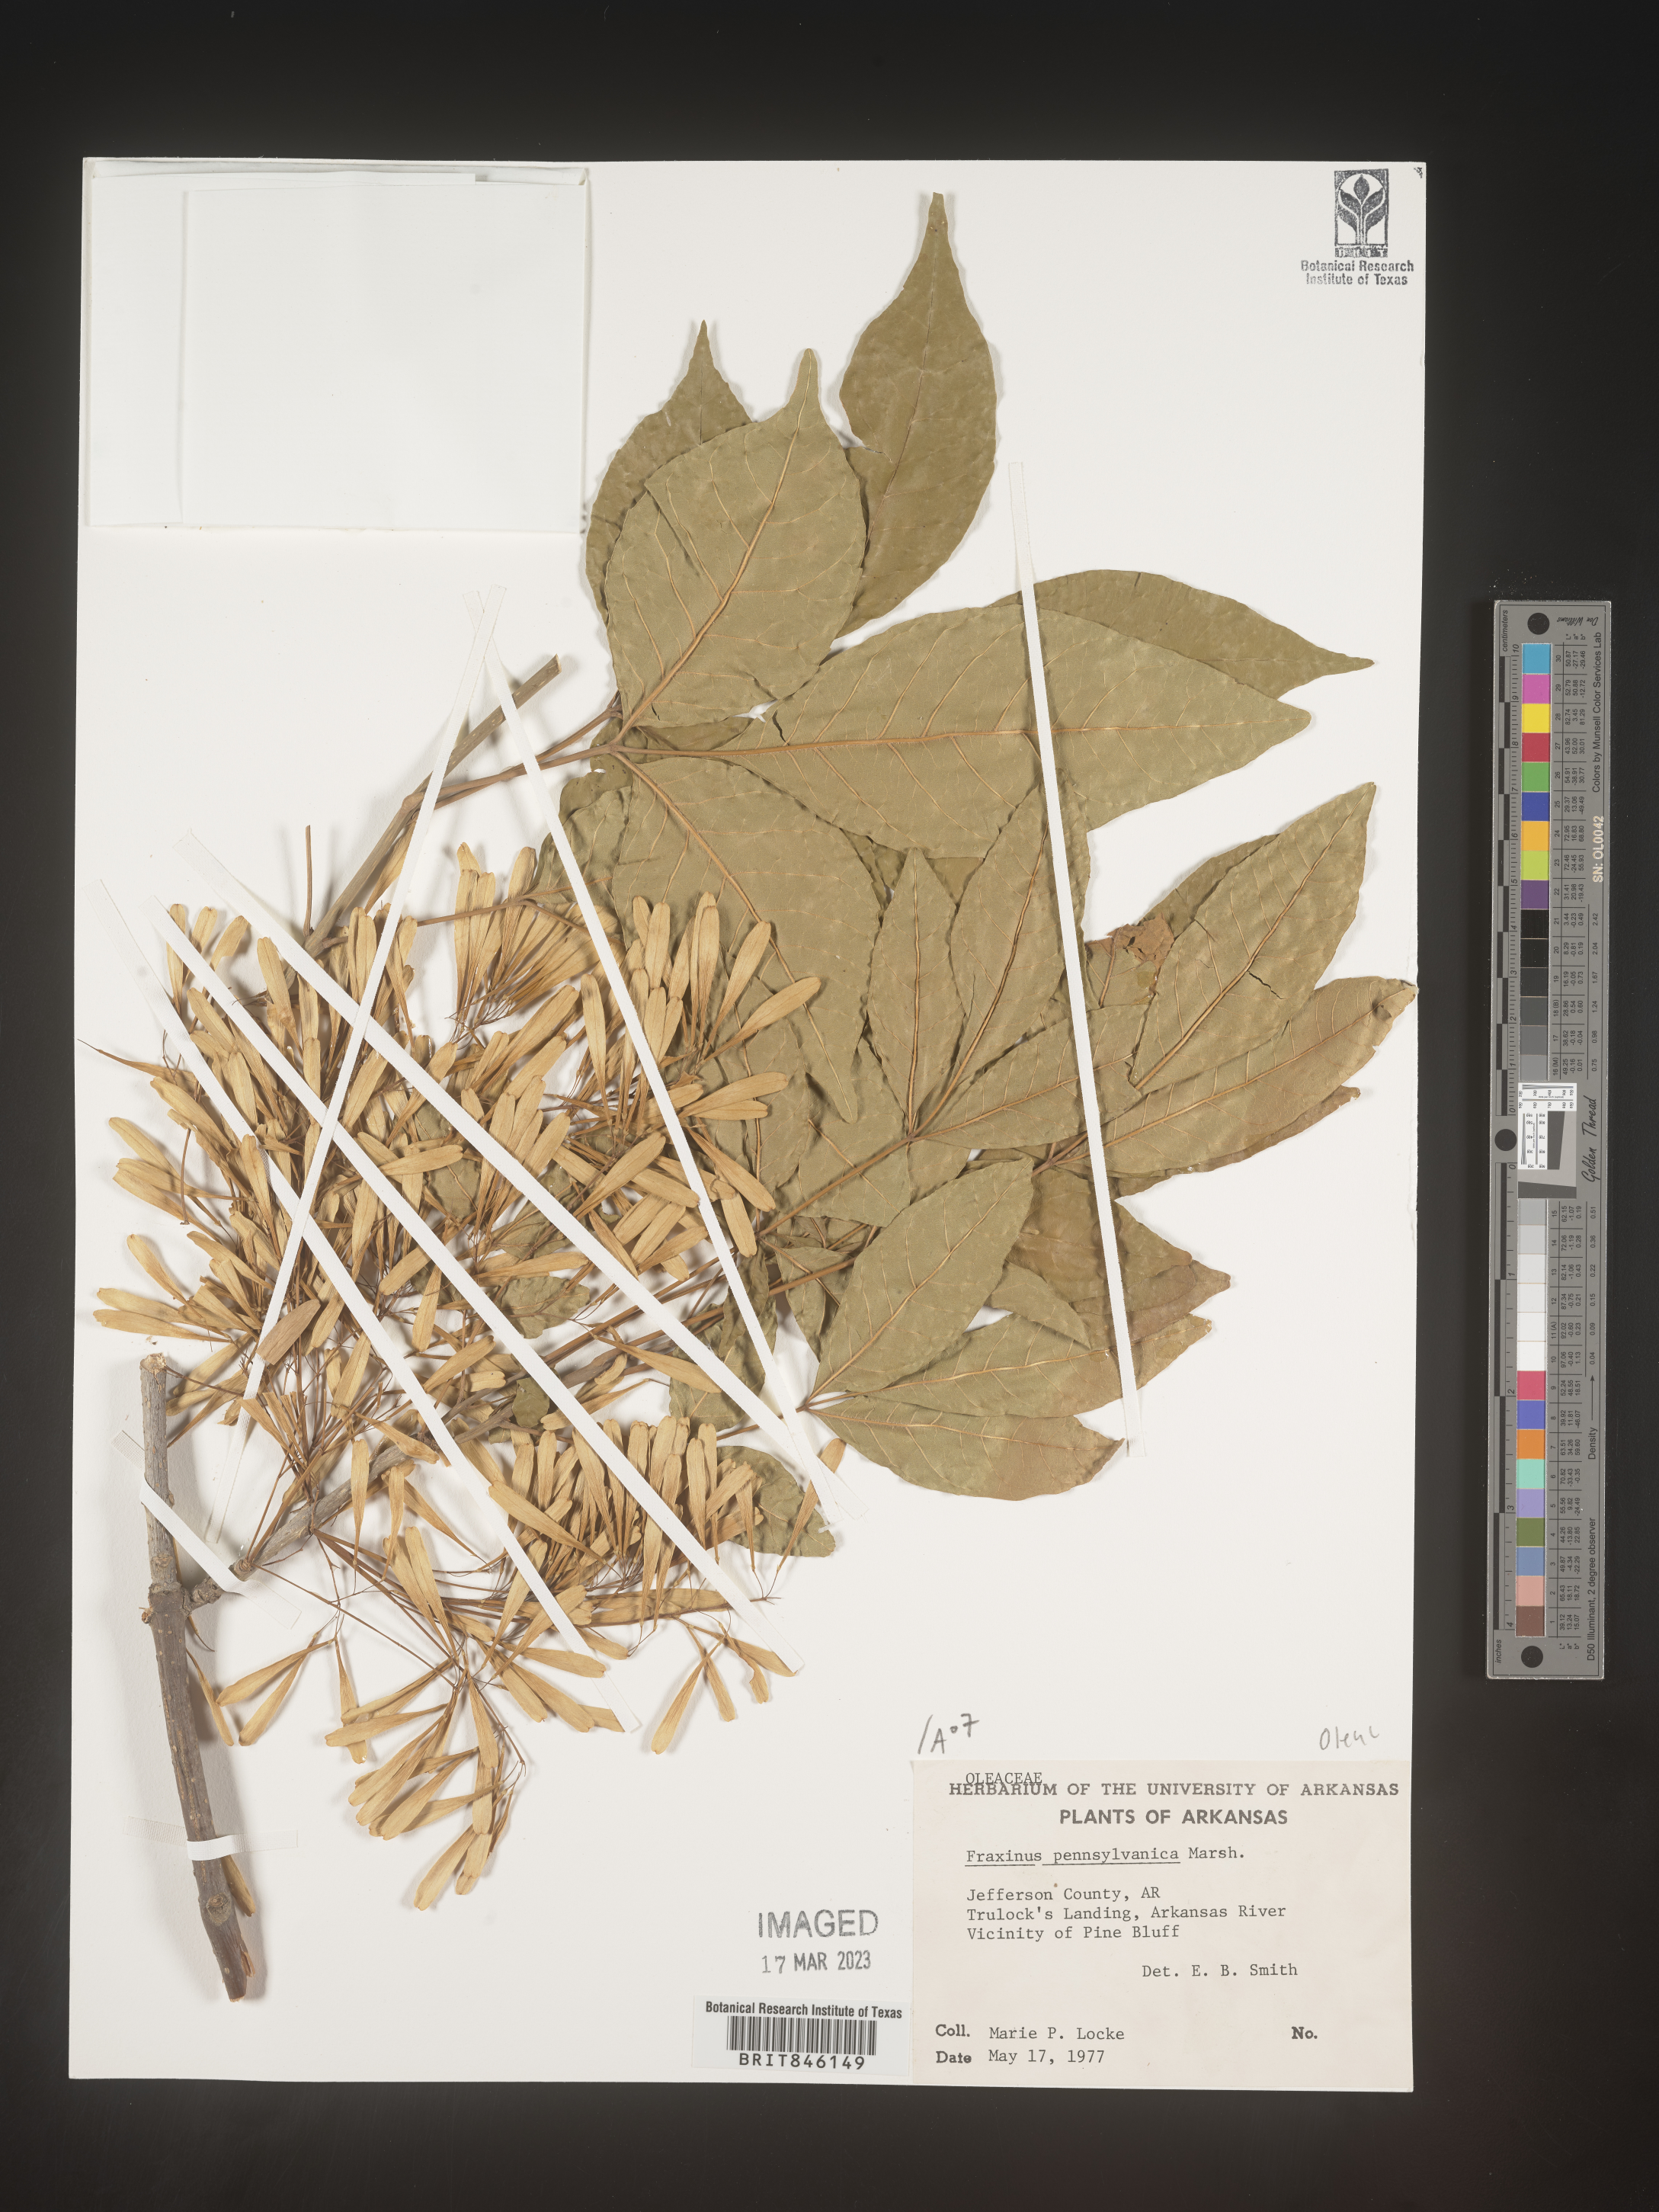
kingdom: Plantae
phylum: Tracheophyta
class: Magnoliopsida
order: Lamiales
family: Oleaceae
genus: Fraxinus
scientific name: Fraxinus pennsylvanica
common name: Green ash
